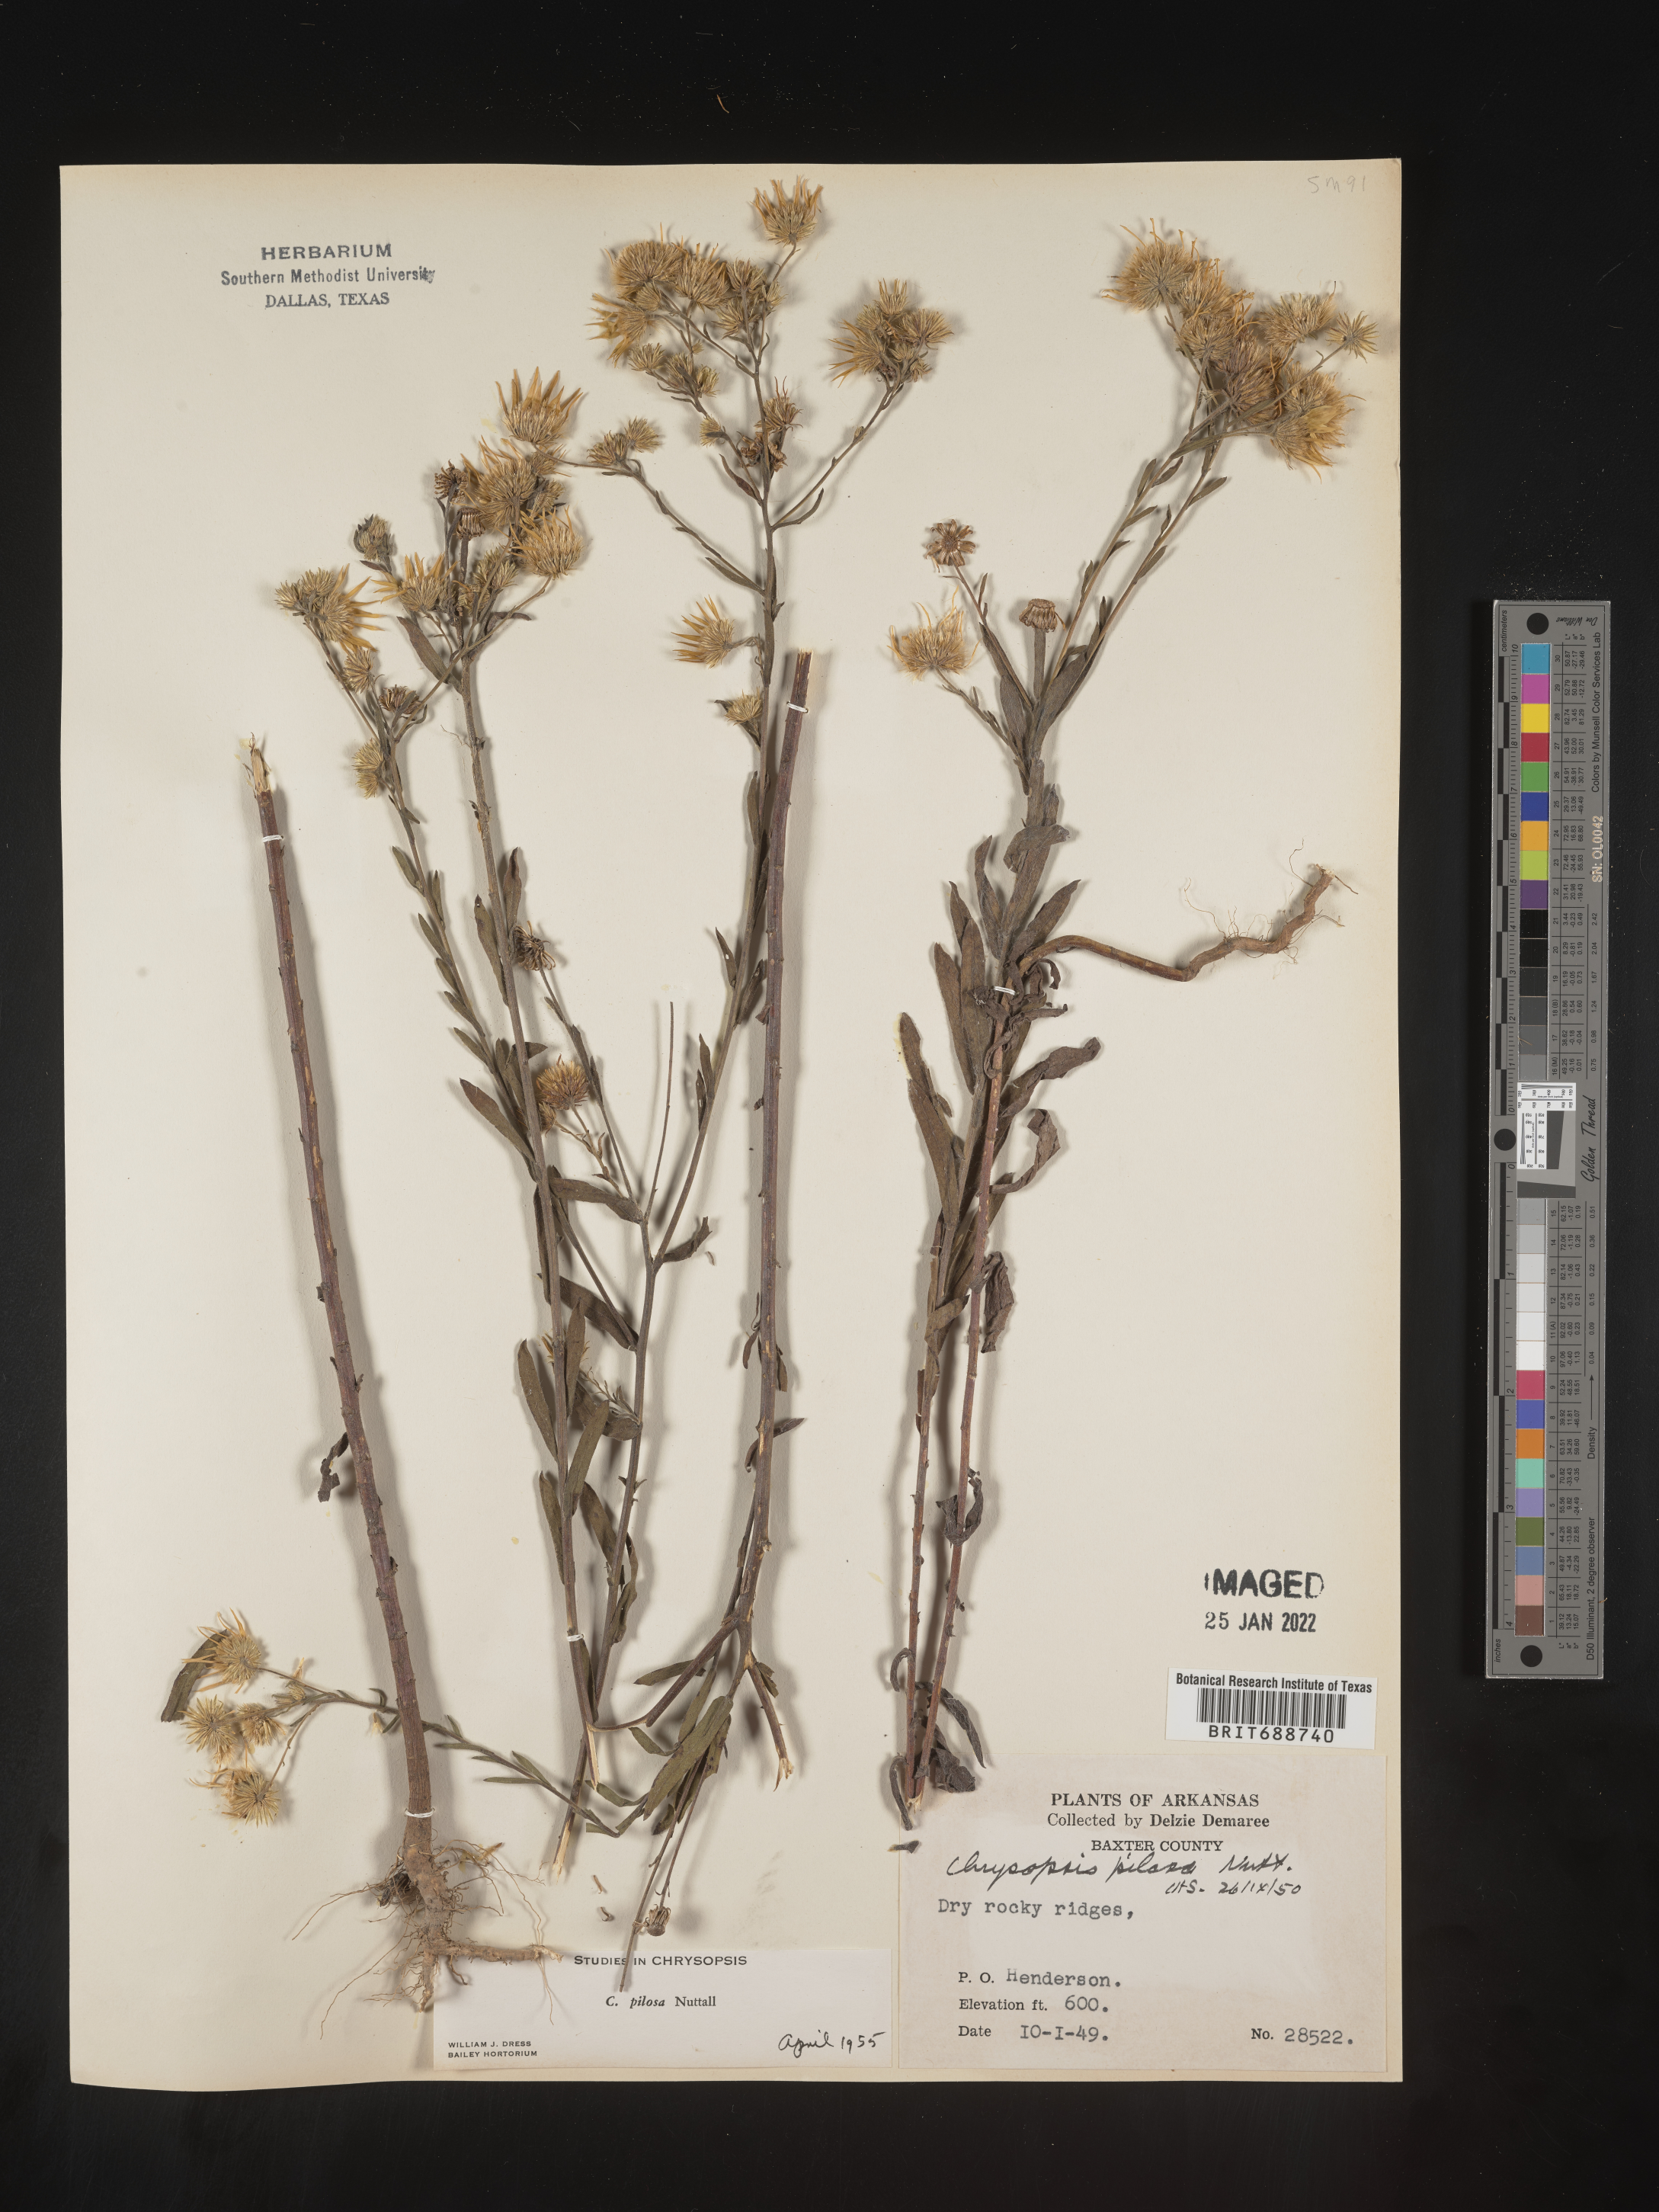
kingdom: Plantae
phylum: Tracheophyta
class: Magnoliopsida
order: Asterales
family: Asteraceae
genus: Bradburia
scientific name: Bradburia pilosa
